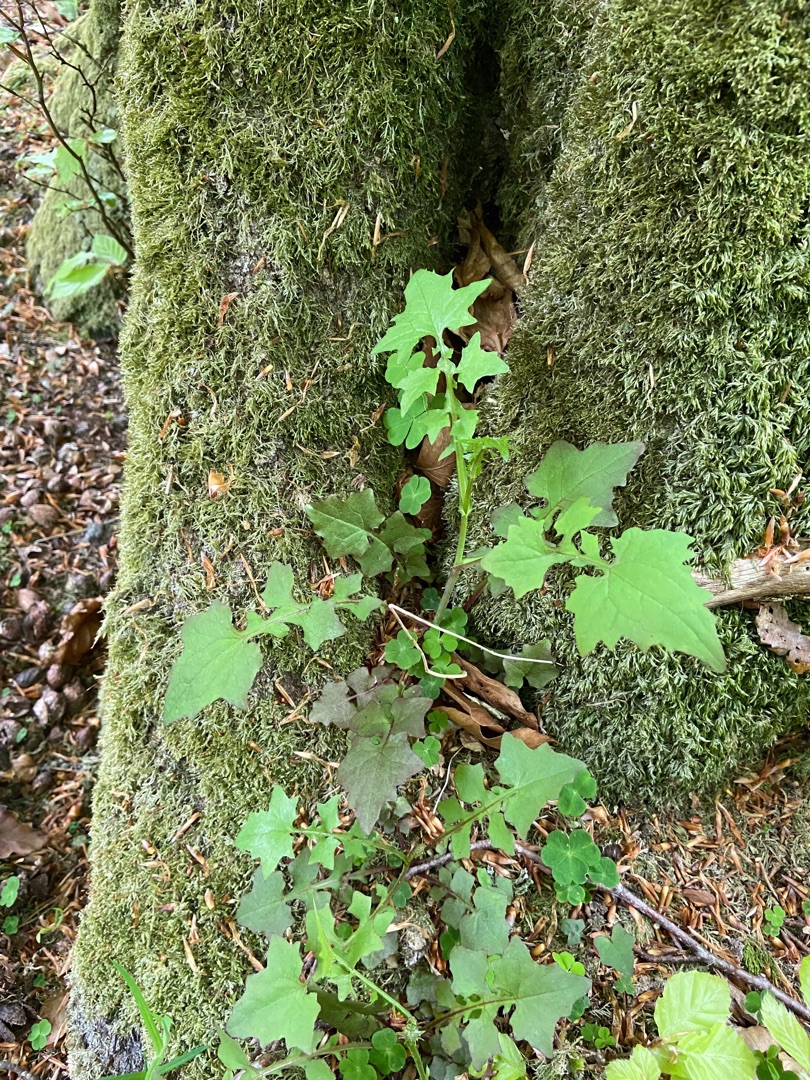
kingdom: Plantae
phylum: Tracheophyta
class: Magnoliopsida
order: Asterales
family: Asteraceae
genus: Mycelis
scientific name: Mycelis muralis
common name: Skov-salat
